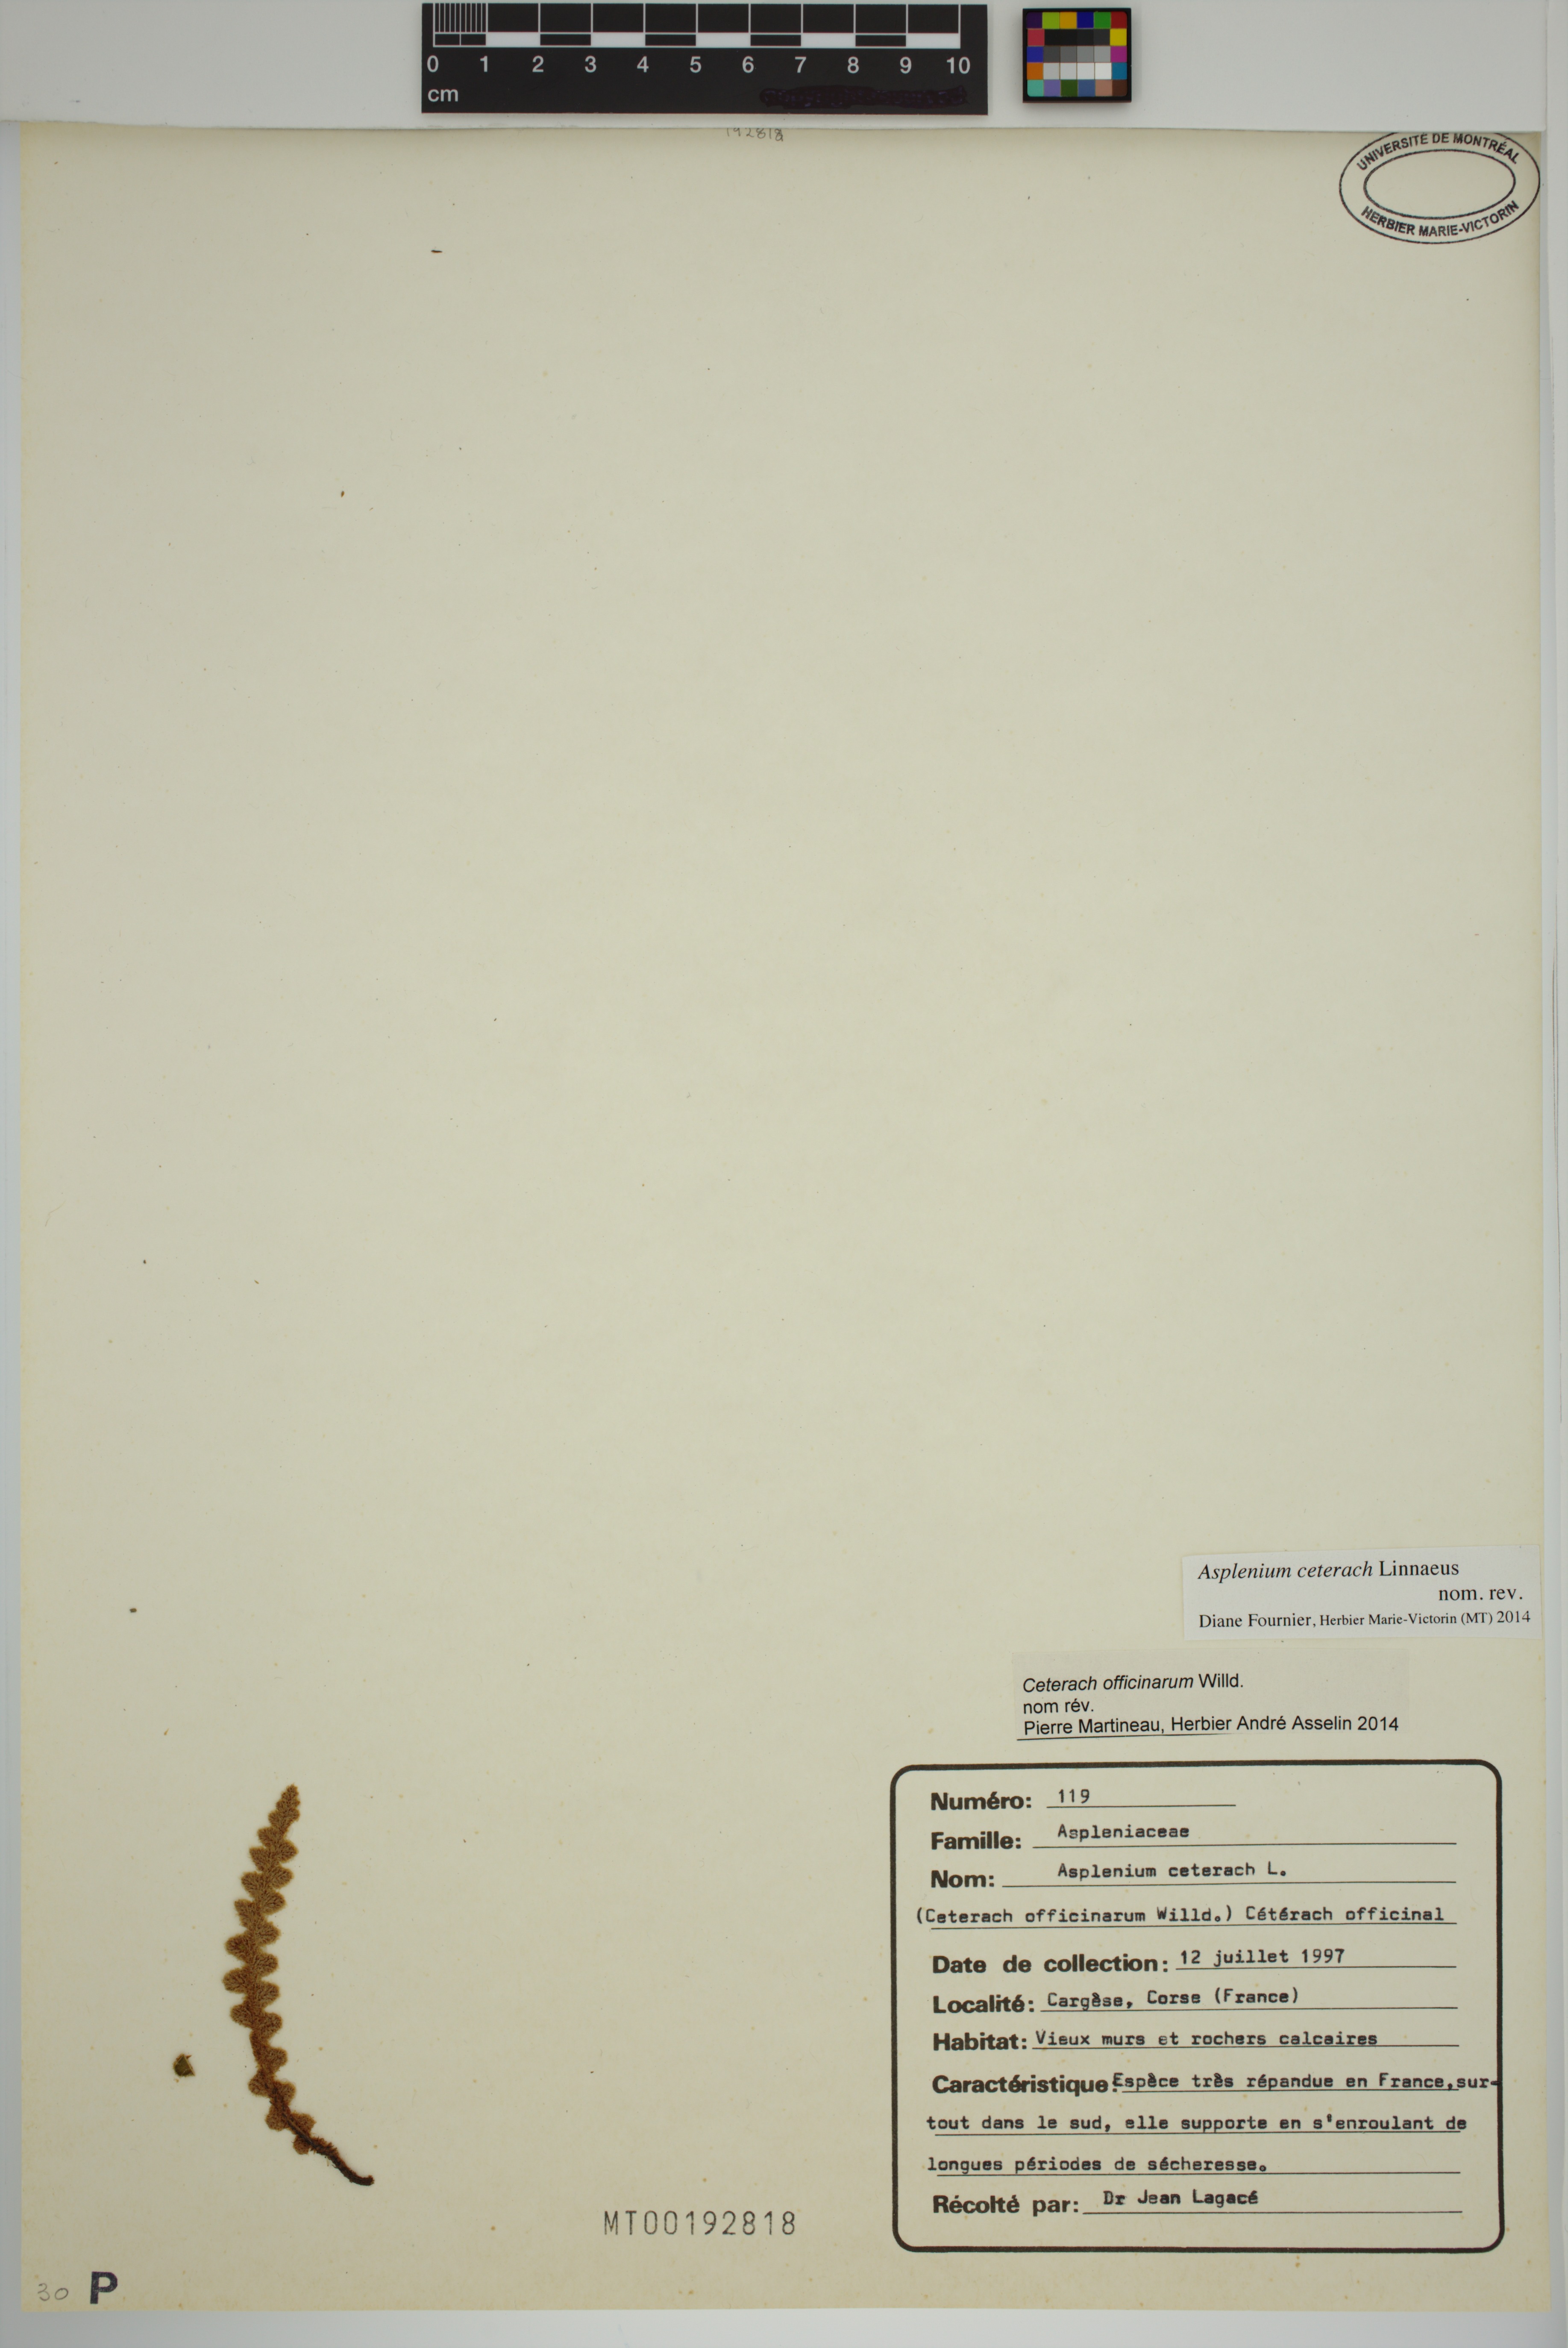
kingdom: Plantae
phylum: Tracheophyta
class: Polypodiopsida
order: Polypodiales
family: Aspleniaceae
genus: Asplenium
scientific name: Asplenium ceterach
